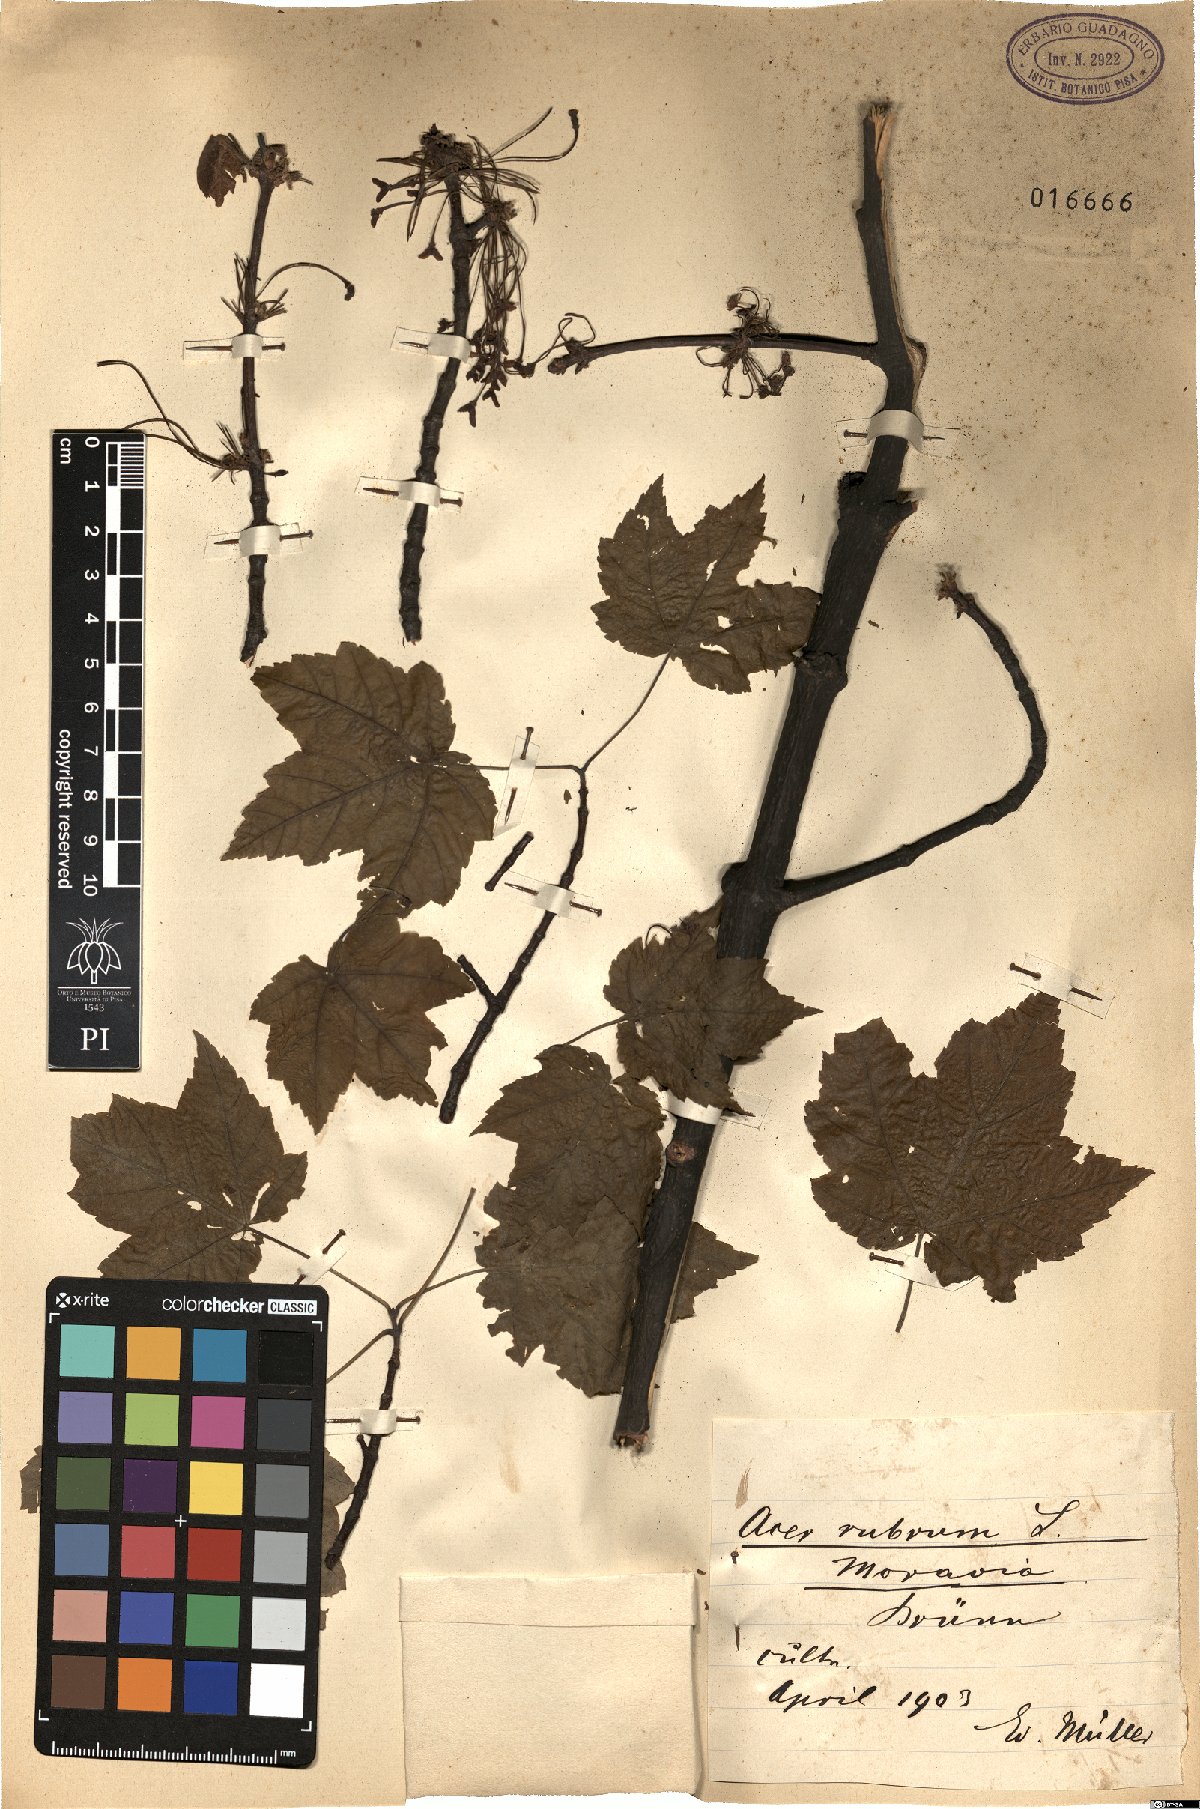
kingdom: Plantae
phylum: Tracheophyta
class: Magnoliopsida
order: Sapindales
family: Sapindaceae
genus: Acer
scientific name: Acer rubrum
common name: Red maple
